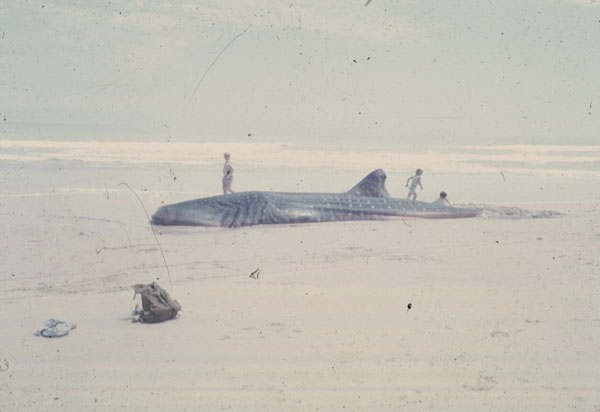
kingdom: Animalia
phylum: Chordata
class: Elasmobranchii
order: Orectolobiformes
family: Rhincodontidae
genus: Rhincodon
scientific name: Rhincodon typus
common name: Whale shark
